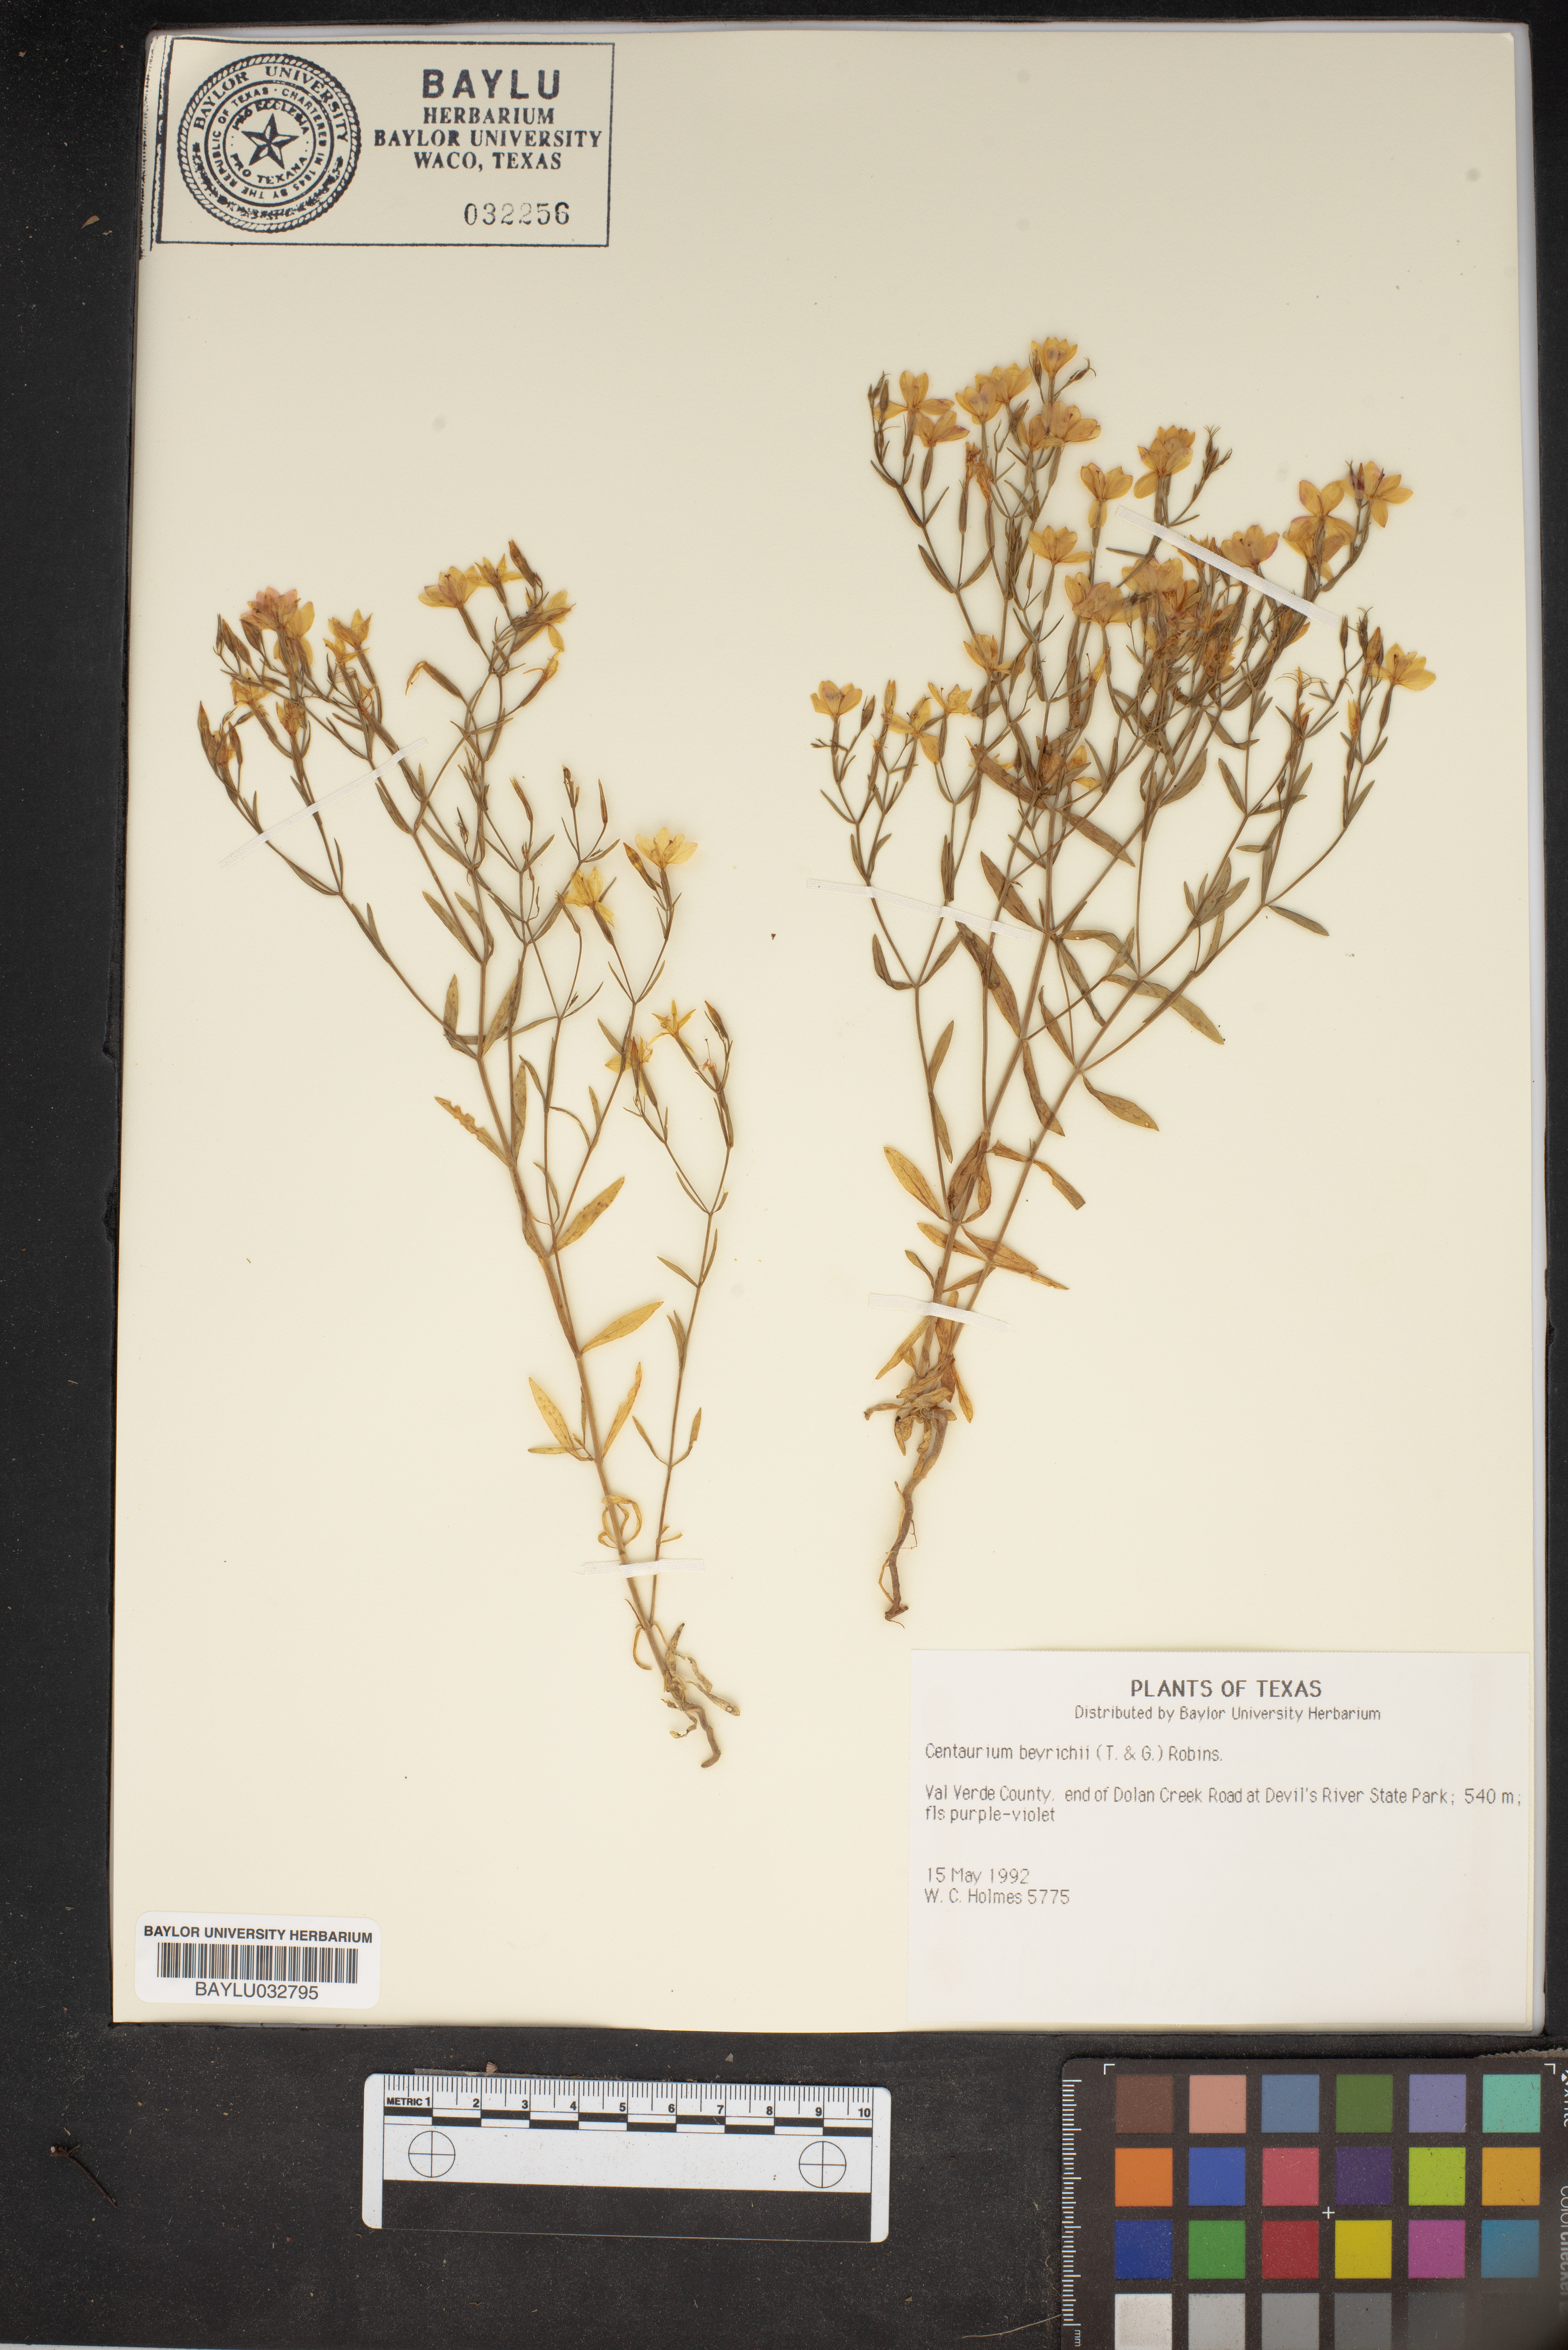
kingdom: Plantae
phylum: Tracheophyta
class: Magnoliopsida
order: Gentianales
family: Gentianaceae
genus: Zeltnera
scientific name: Zeltnera beyrichii
